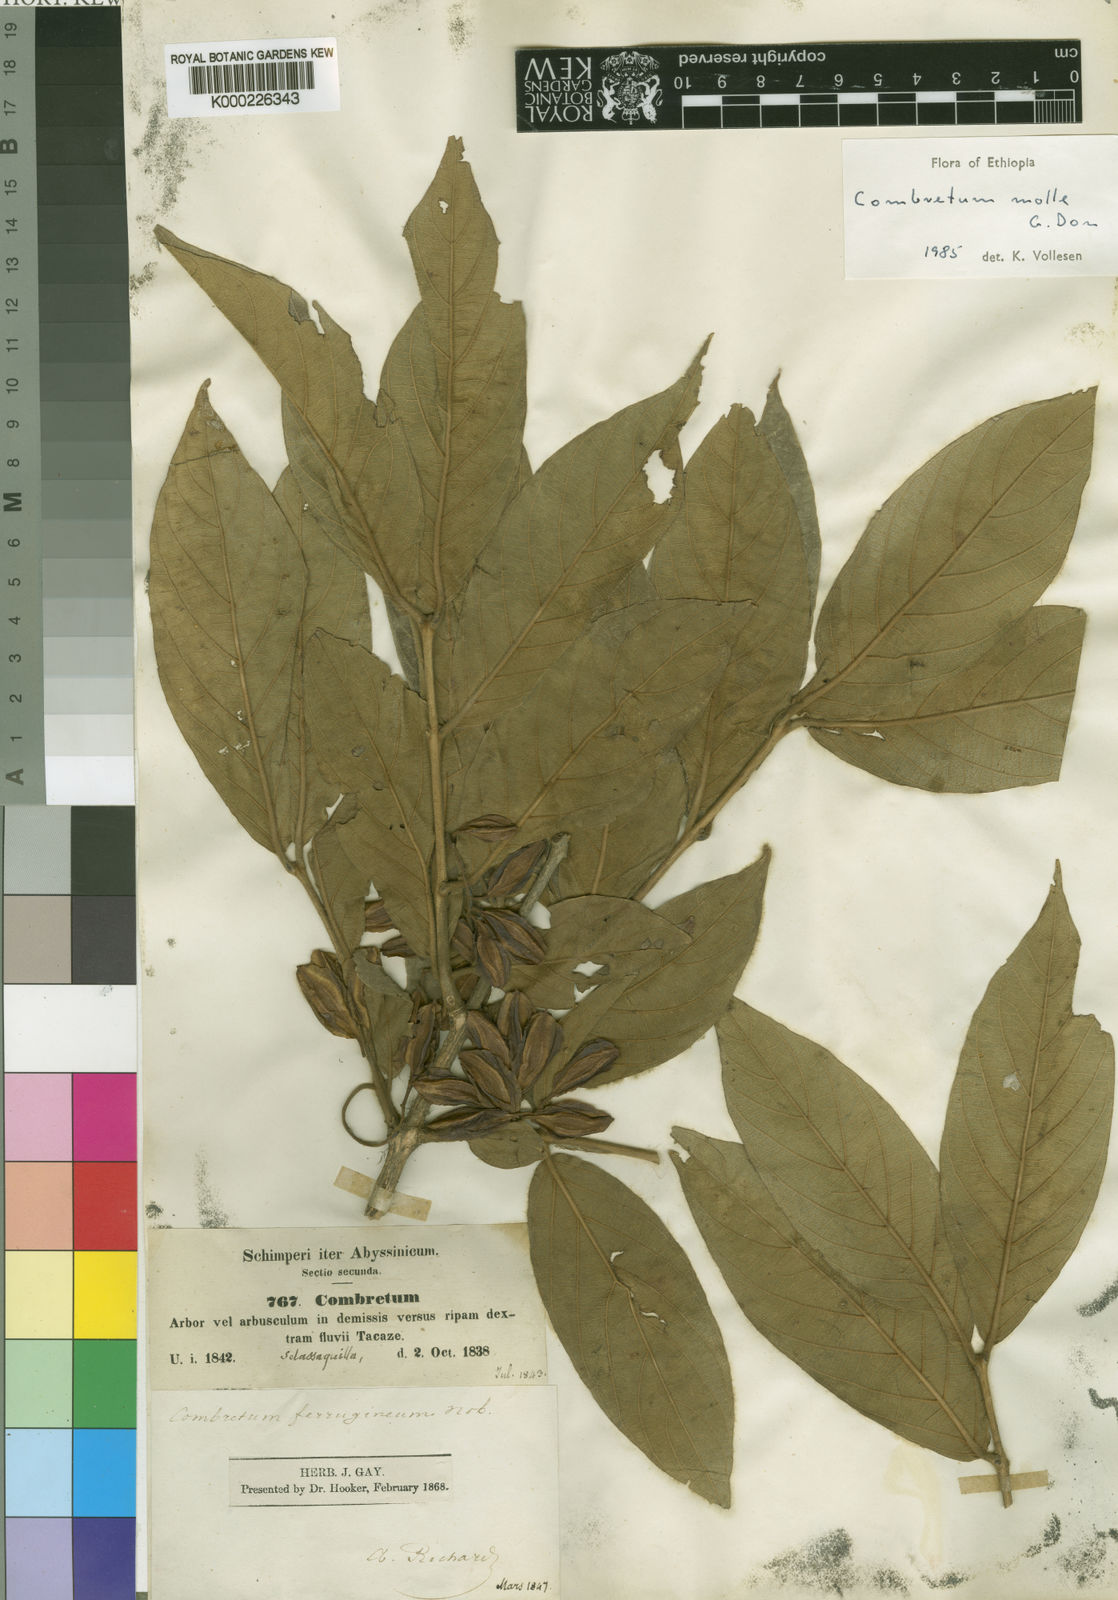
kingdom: Plantae
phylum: Tracheophyta
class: Magnoliopsida
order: Myrtales
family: Combretaceae
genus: Combretum
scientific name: Combretum molle
